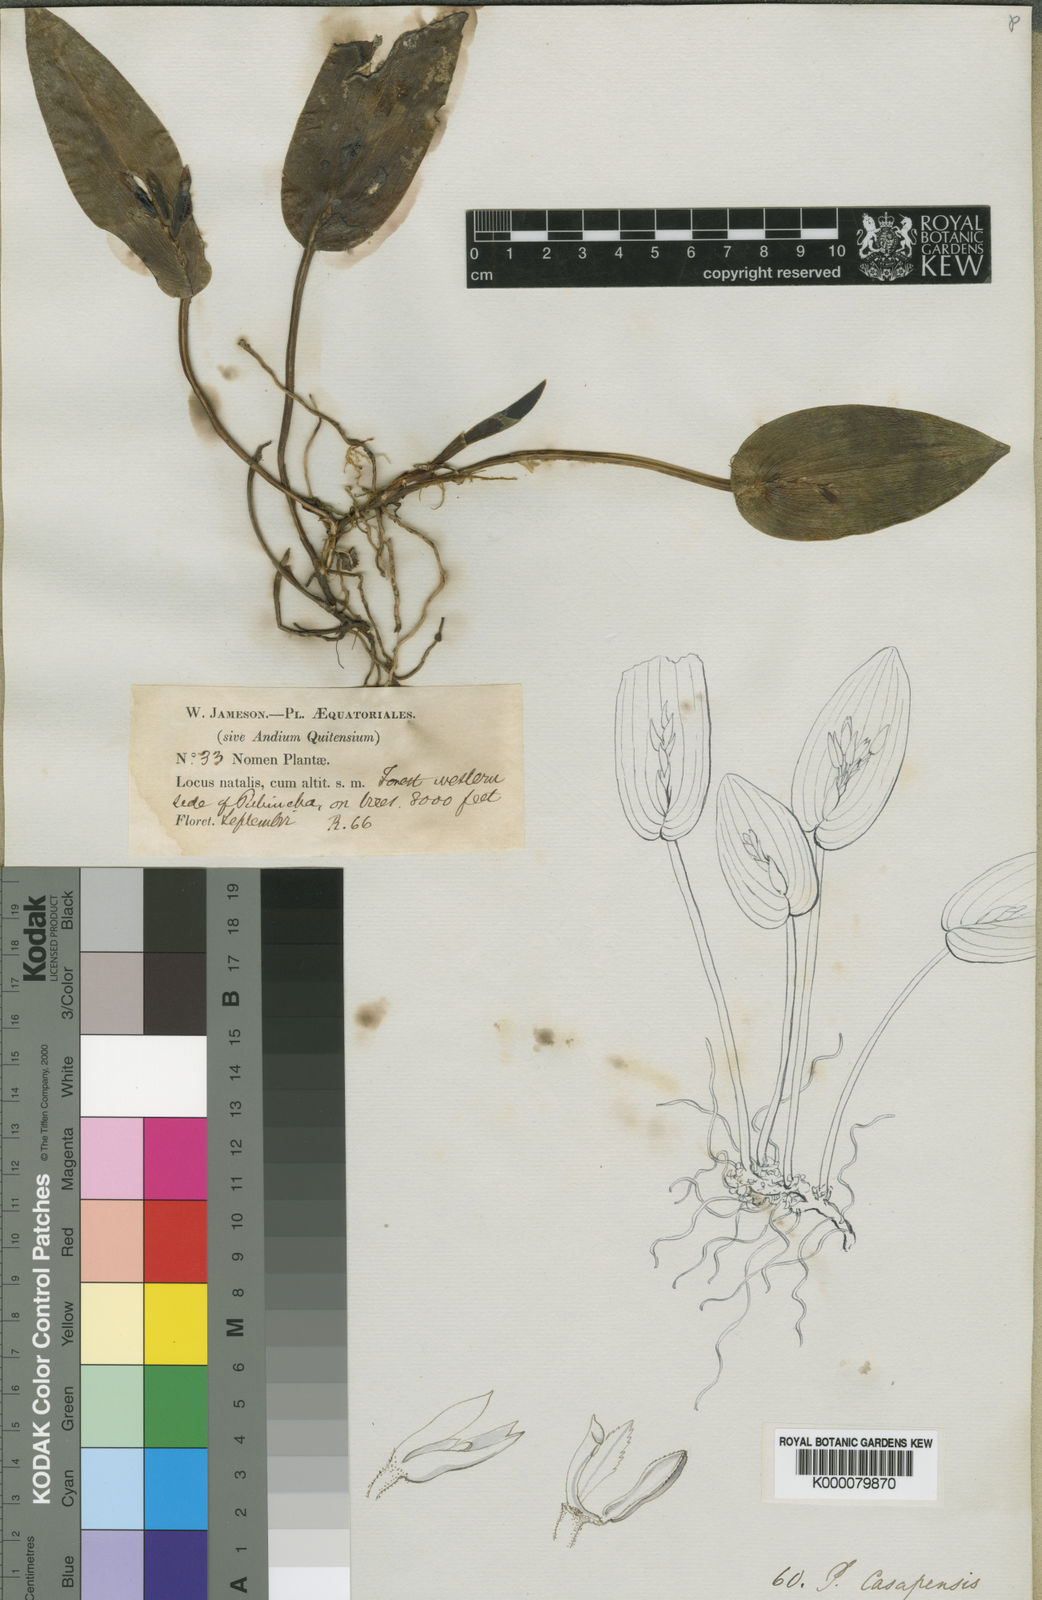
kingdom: Plantae
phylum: Tracheophyta
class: Liliopsida
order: Asparagales
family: Orchidaceae
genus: Acianthera
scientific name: Acianthera polystachya
